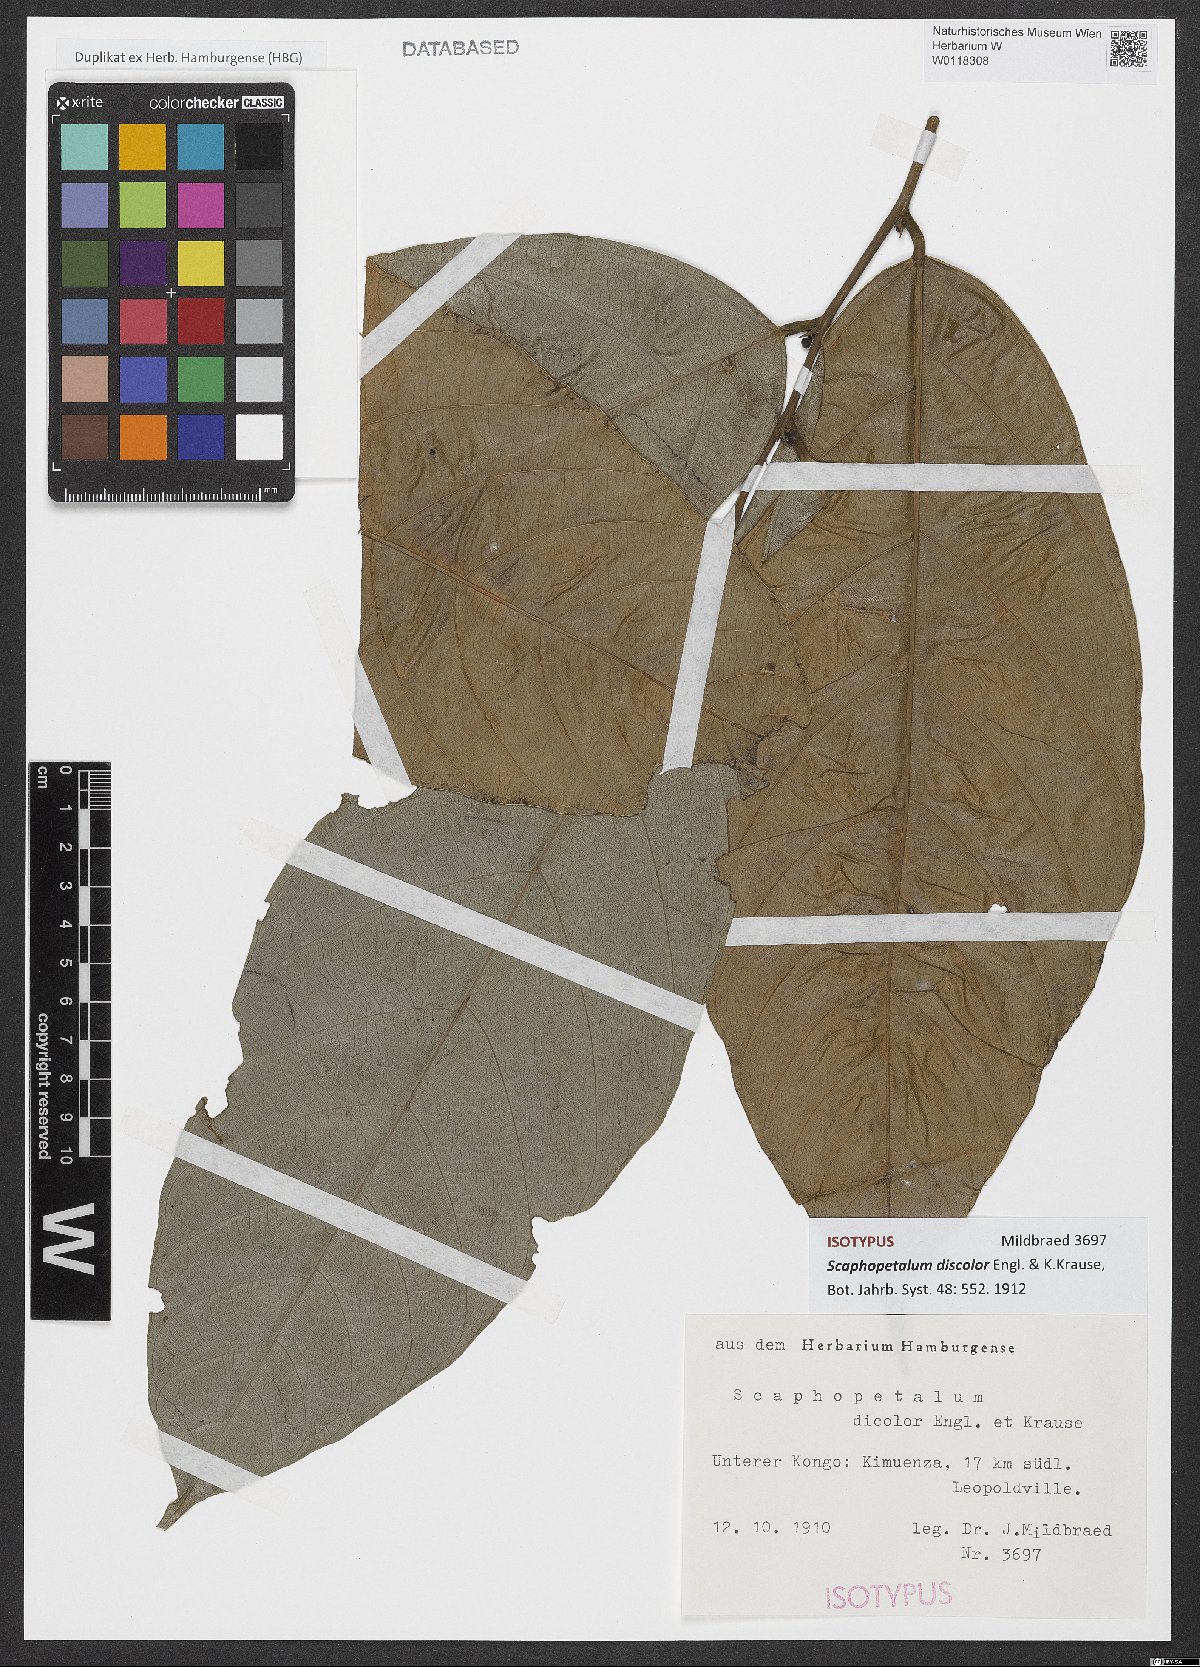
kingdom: Plantae
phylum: Tracheophyta
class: Magnoliopsida
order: Malvales
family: Malvaceae
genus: Scaphopetalum
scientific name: Scaphopetalum discolor
